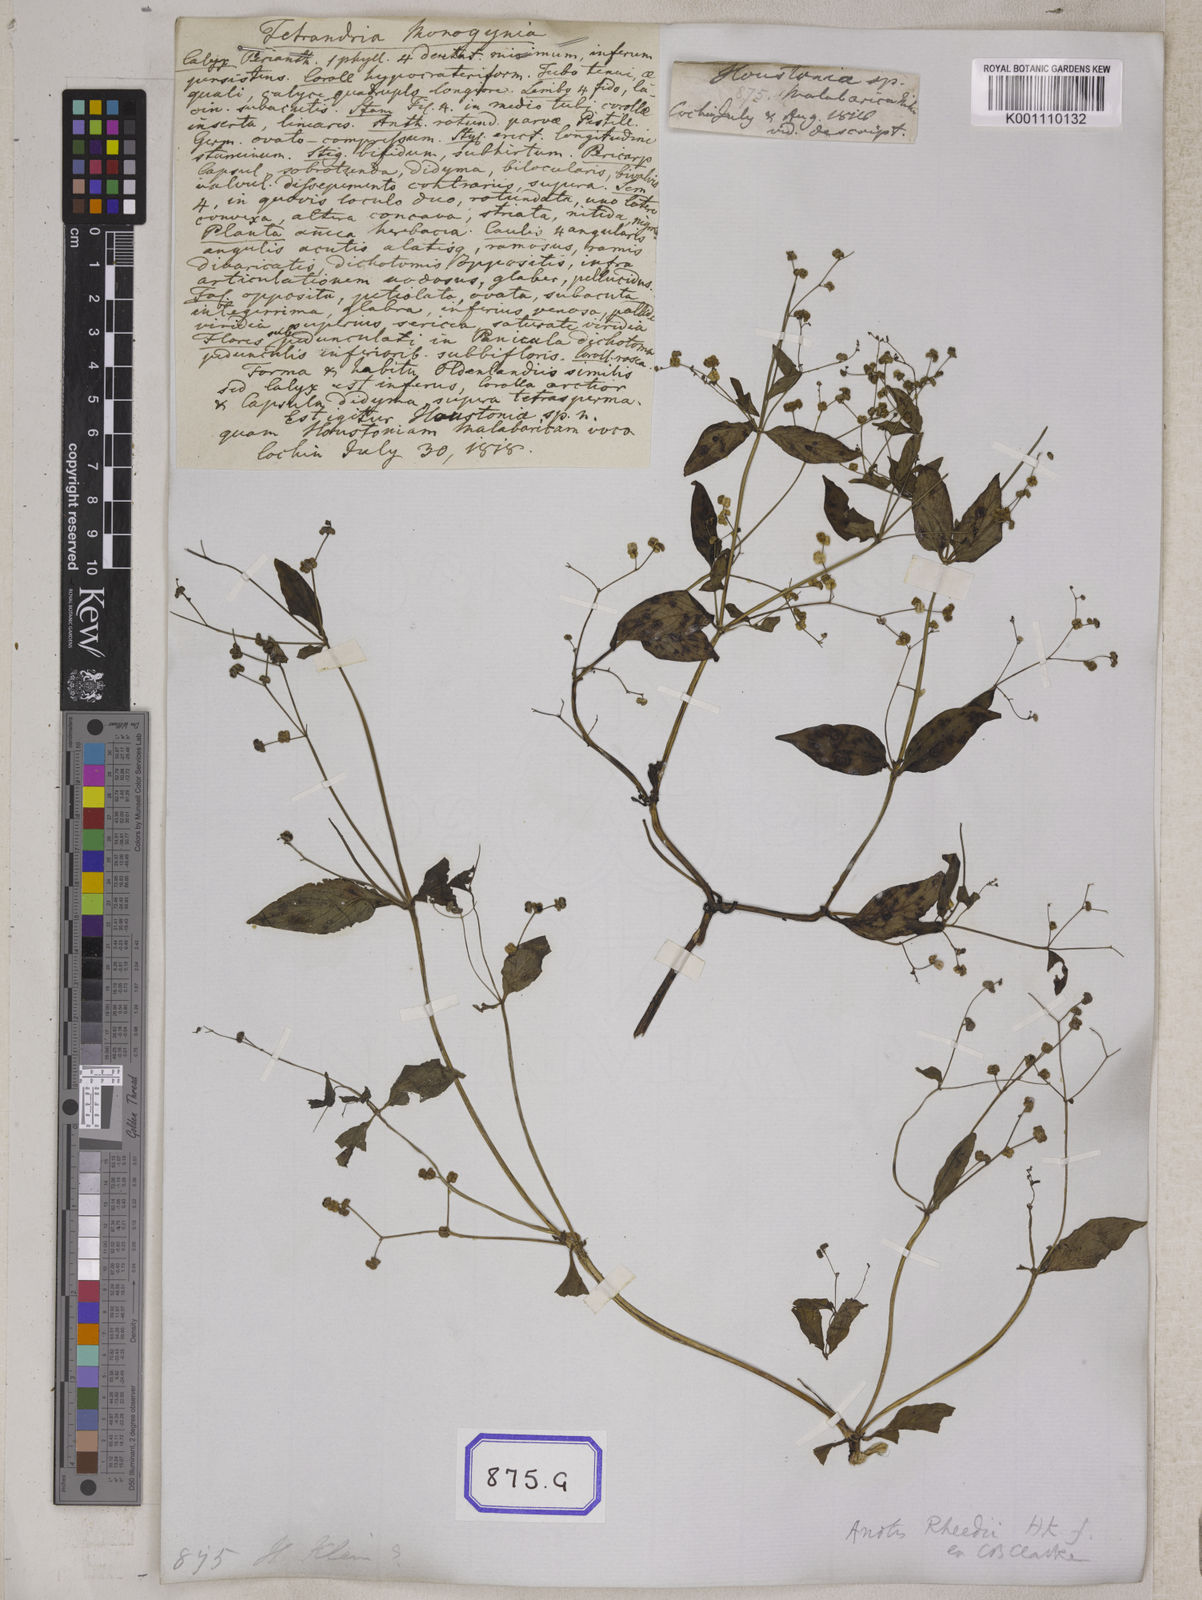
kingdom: Plantae
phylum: Tracheophyta
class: Magnoliopsida
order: Gentianales
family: Rubiaceae
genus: Leptopetalum
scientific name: Leptopetalum racemosum
